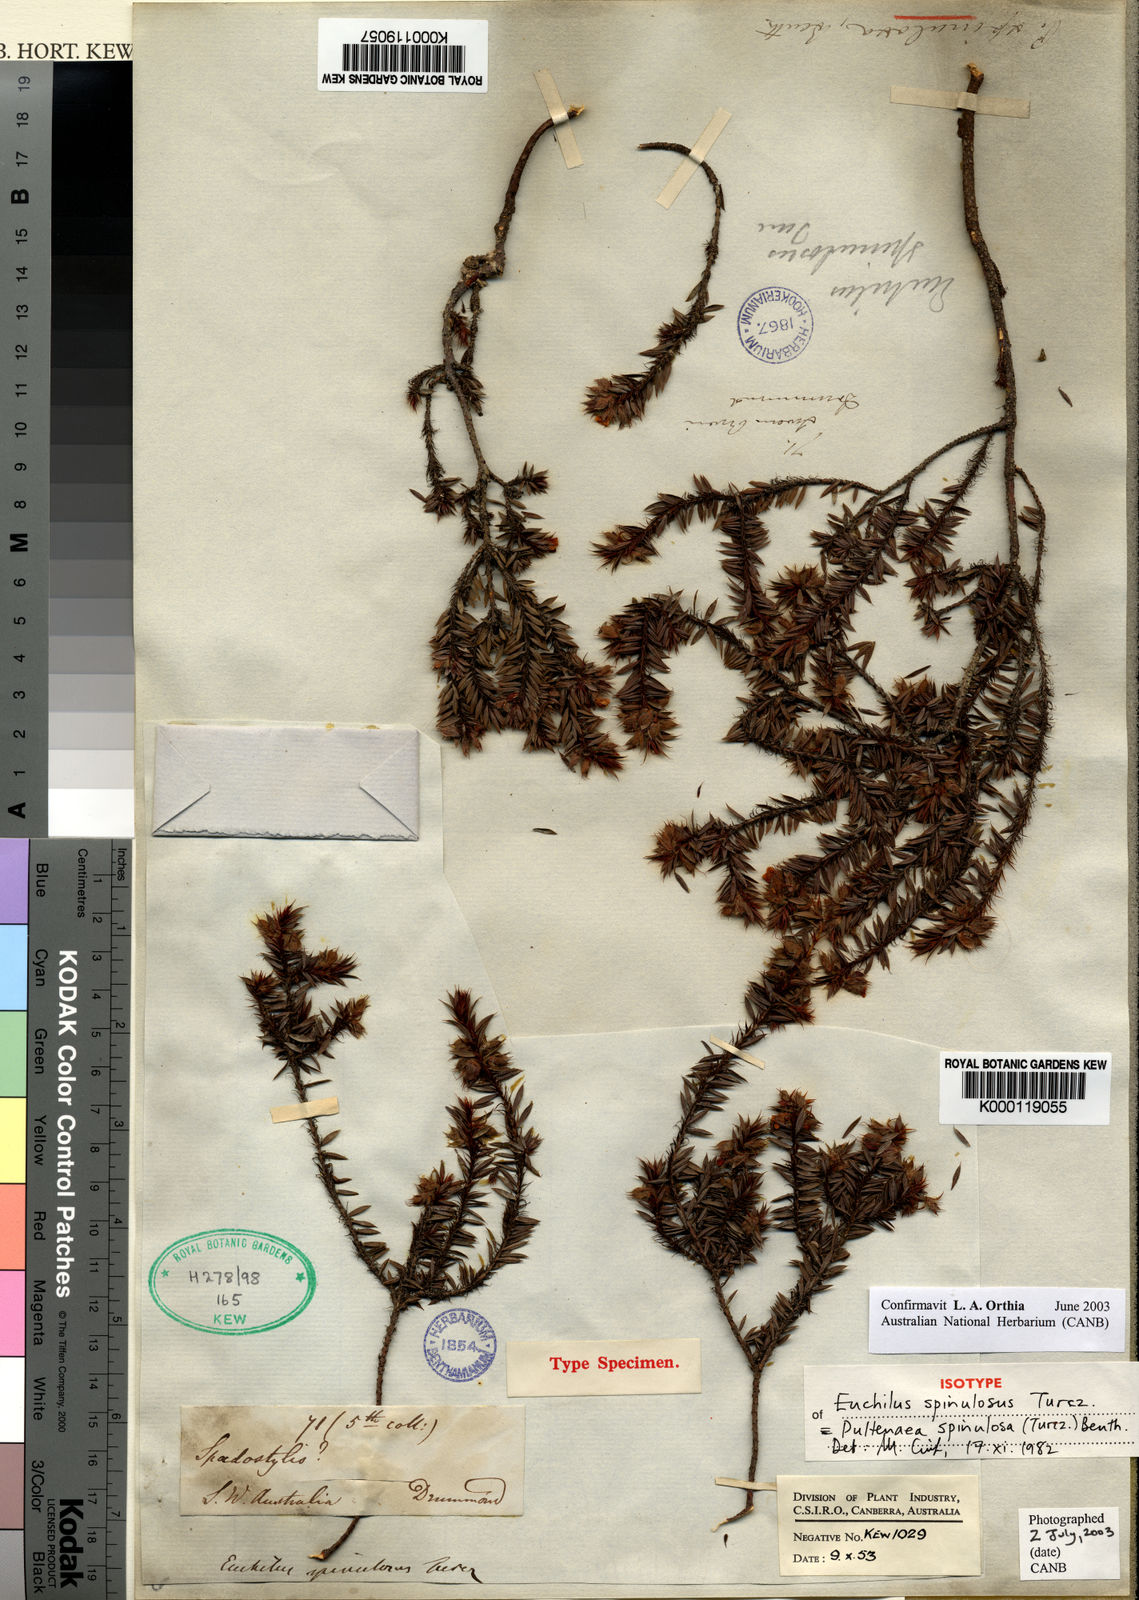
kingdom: Plantae
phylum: Tracheophyta
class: Magnoliopsida
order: Fabales
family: Fabaceae
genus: Pultenaea
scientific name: Pultenaea spinulosa
